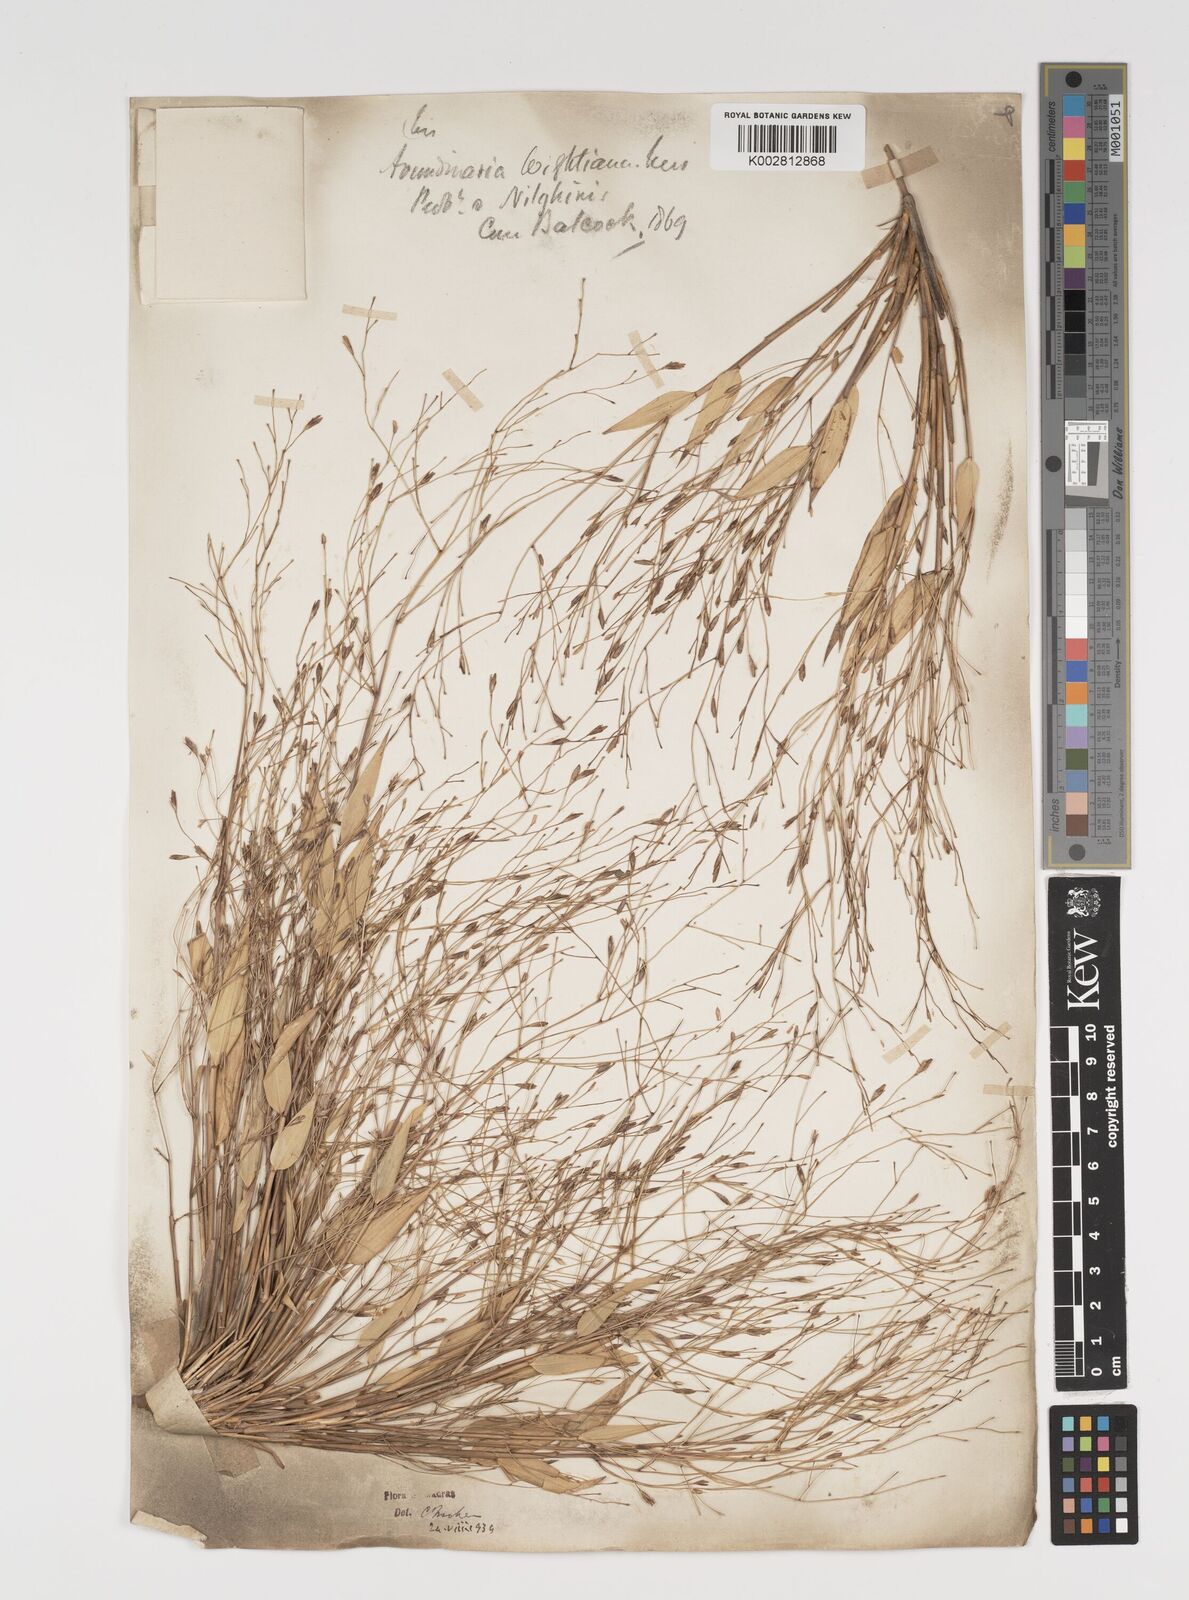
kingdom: Plantae
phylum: Tracheophyta
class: Liliopsida
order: Poales
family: Poaceae
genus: Kuruna
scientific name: Kuruna wightiana
